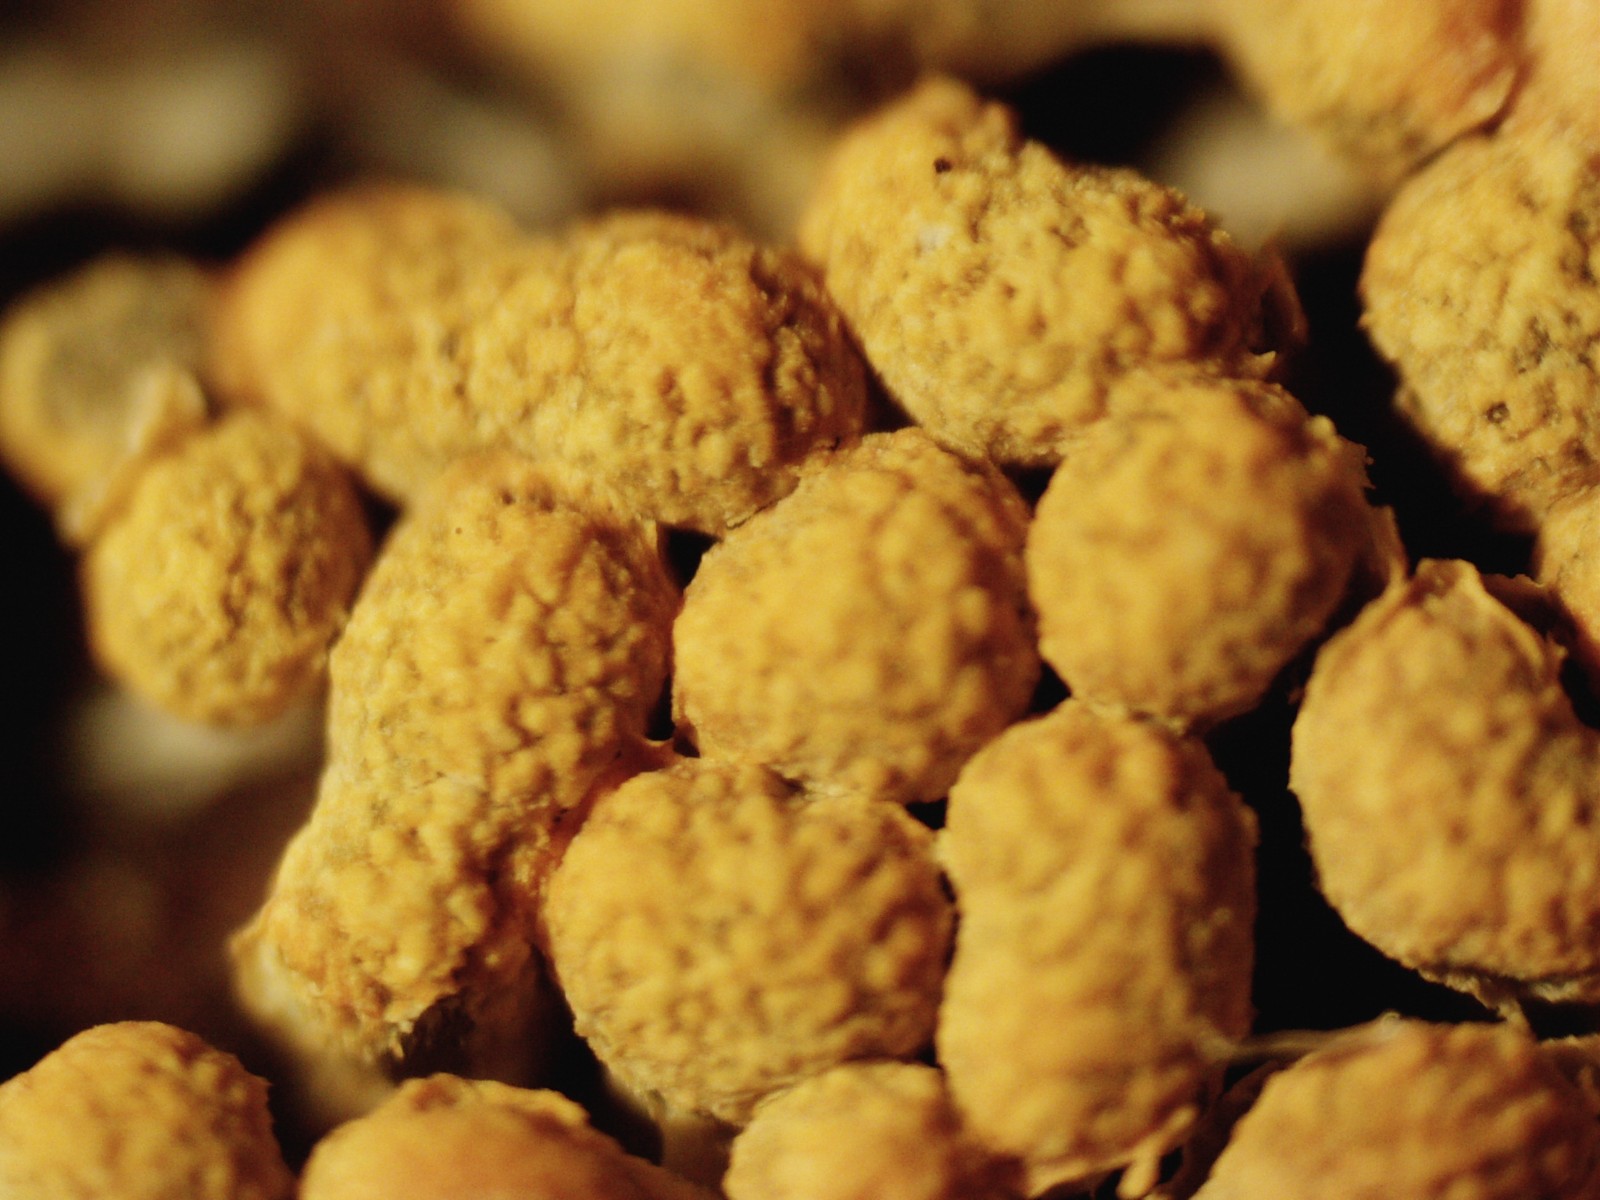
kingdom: Protozoa
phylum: Mycetozoa
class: Myxomycetes
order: Physarales
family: Physaraceae
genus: Physarum
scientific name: Physarum contextum
